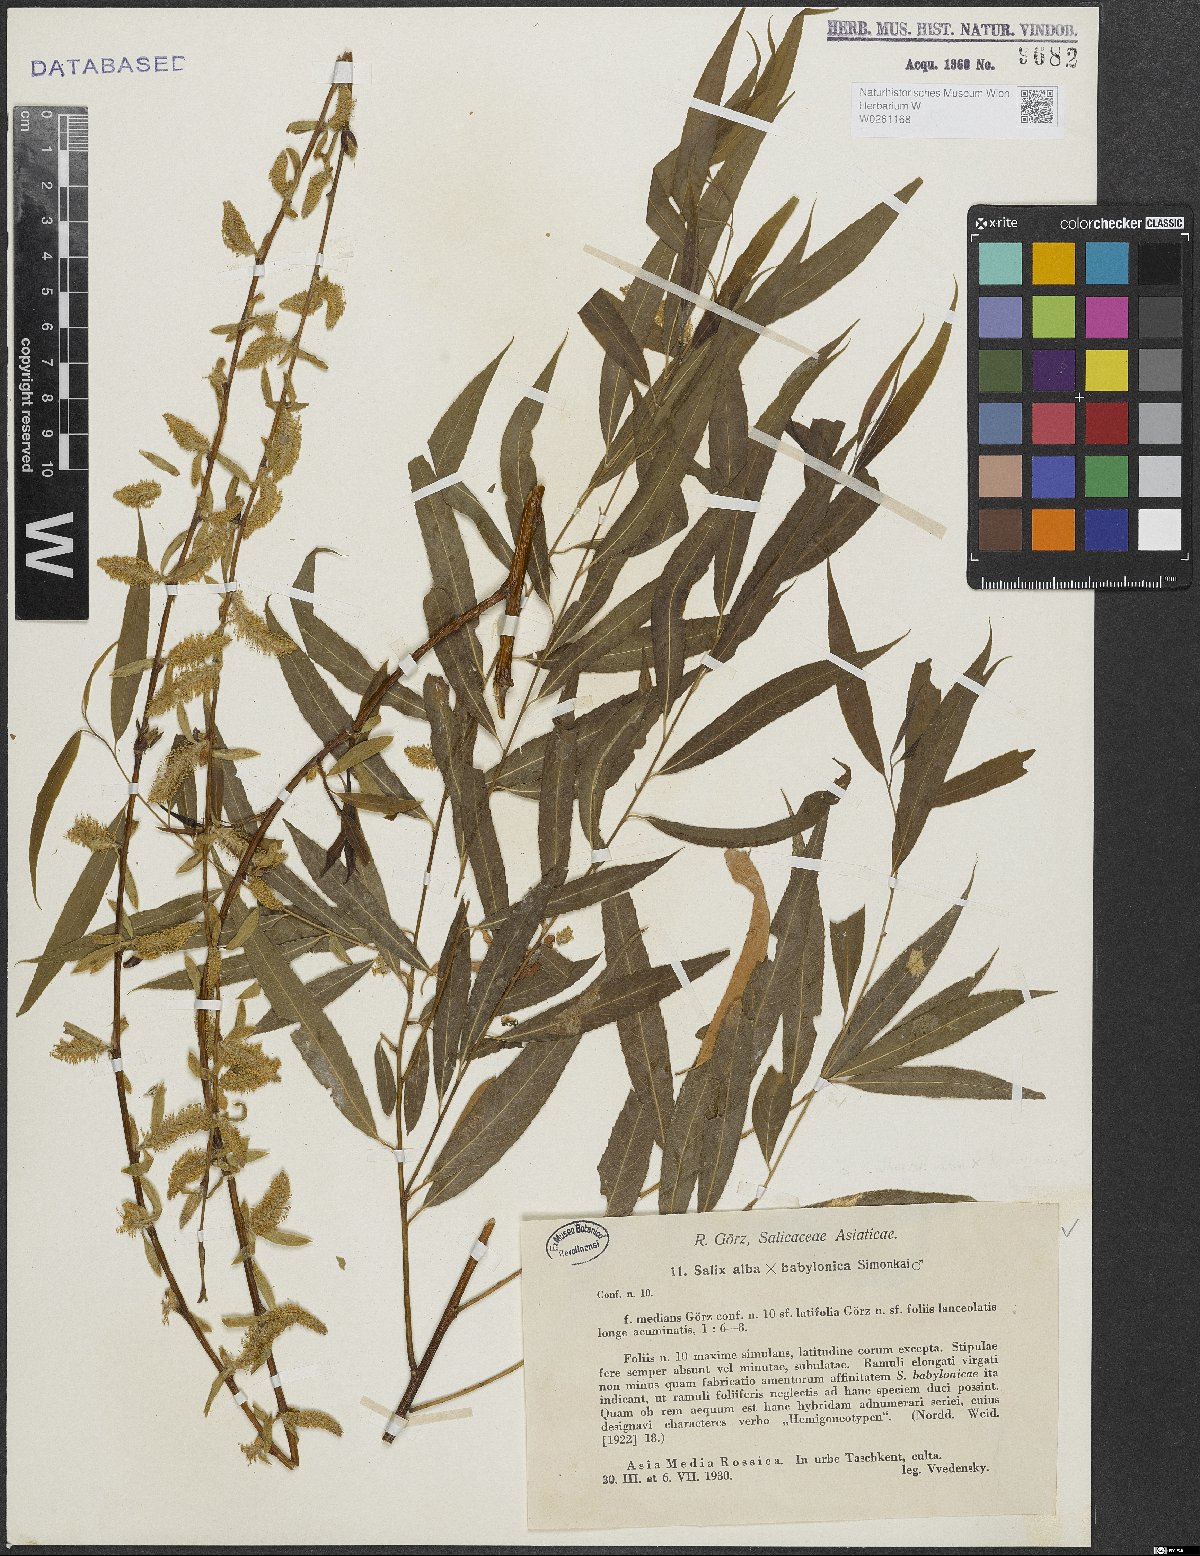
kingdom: Plantae
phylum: Tracheophyta
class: Magnoliopsida
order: Malpighiales
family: Salicaceae
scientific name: Salicaceae
